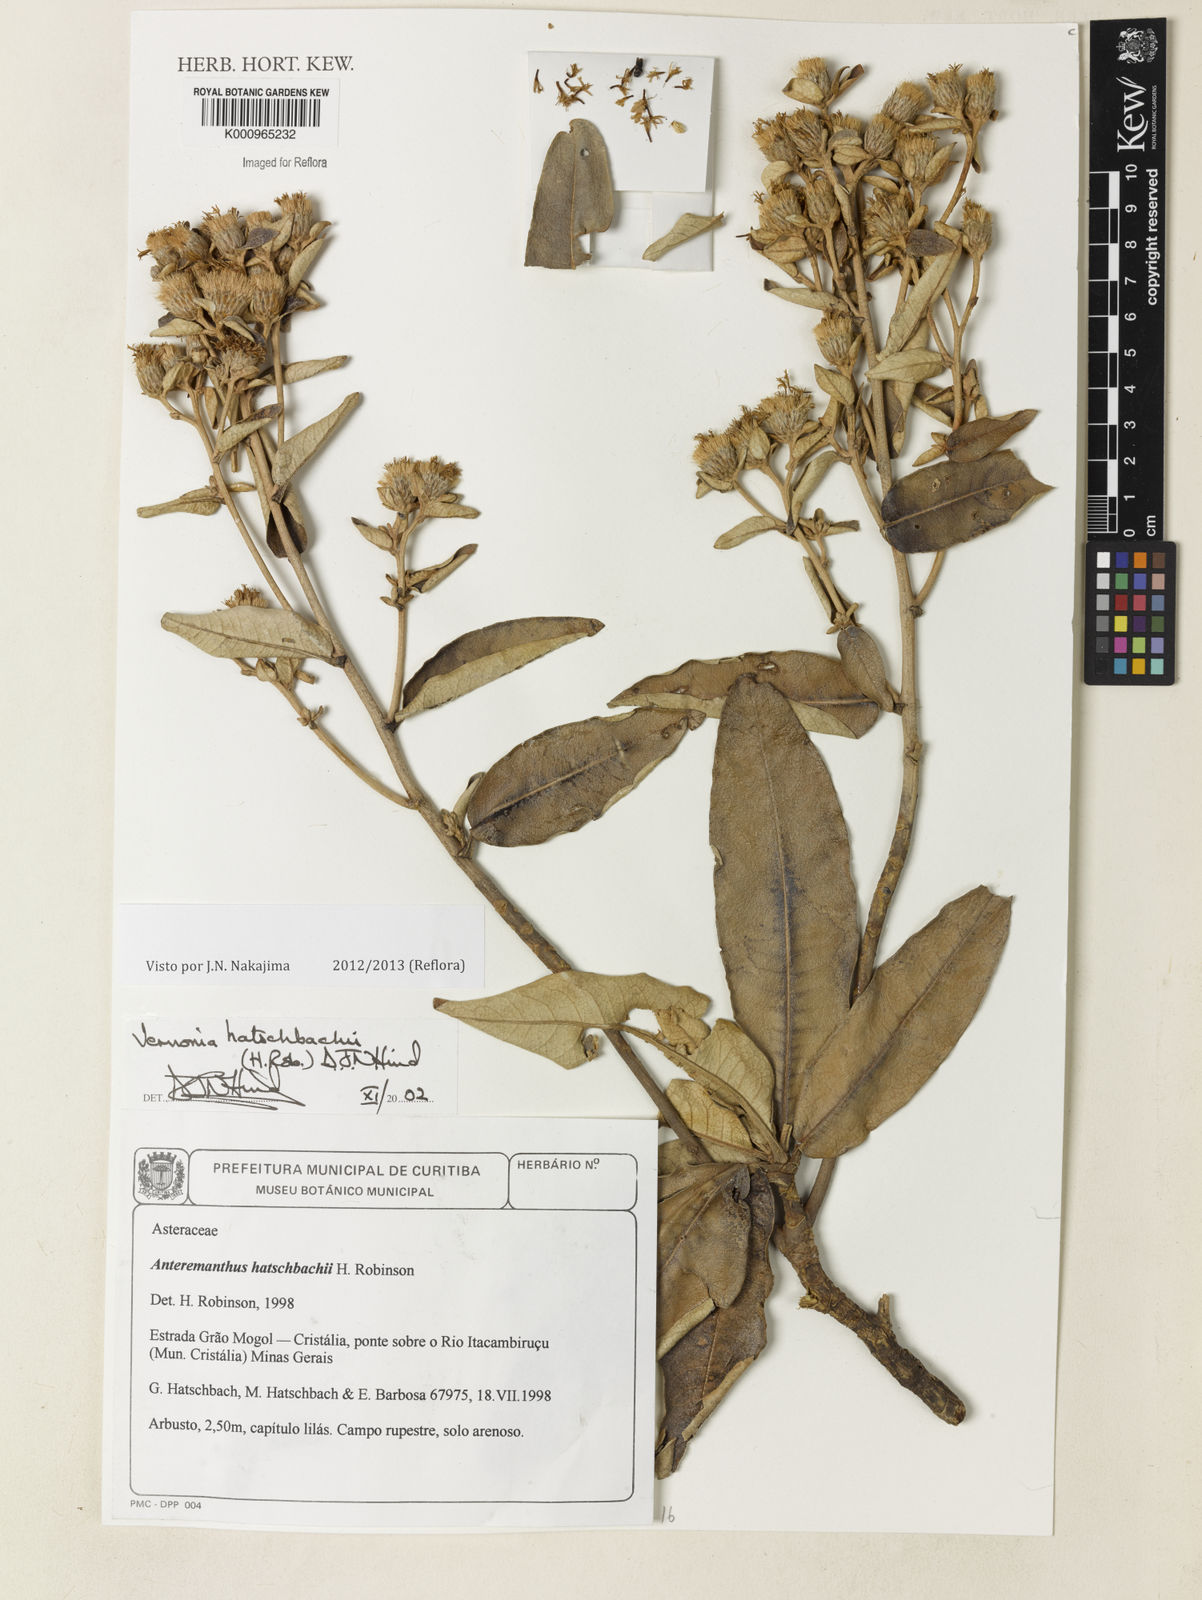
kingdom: Plantae
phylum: Tracheophyta
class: Magnoliopsida
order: Asterales
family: Asteraceae
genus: Anteremanthus
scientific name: Anteremanthus hatschbachii
